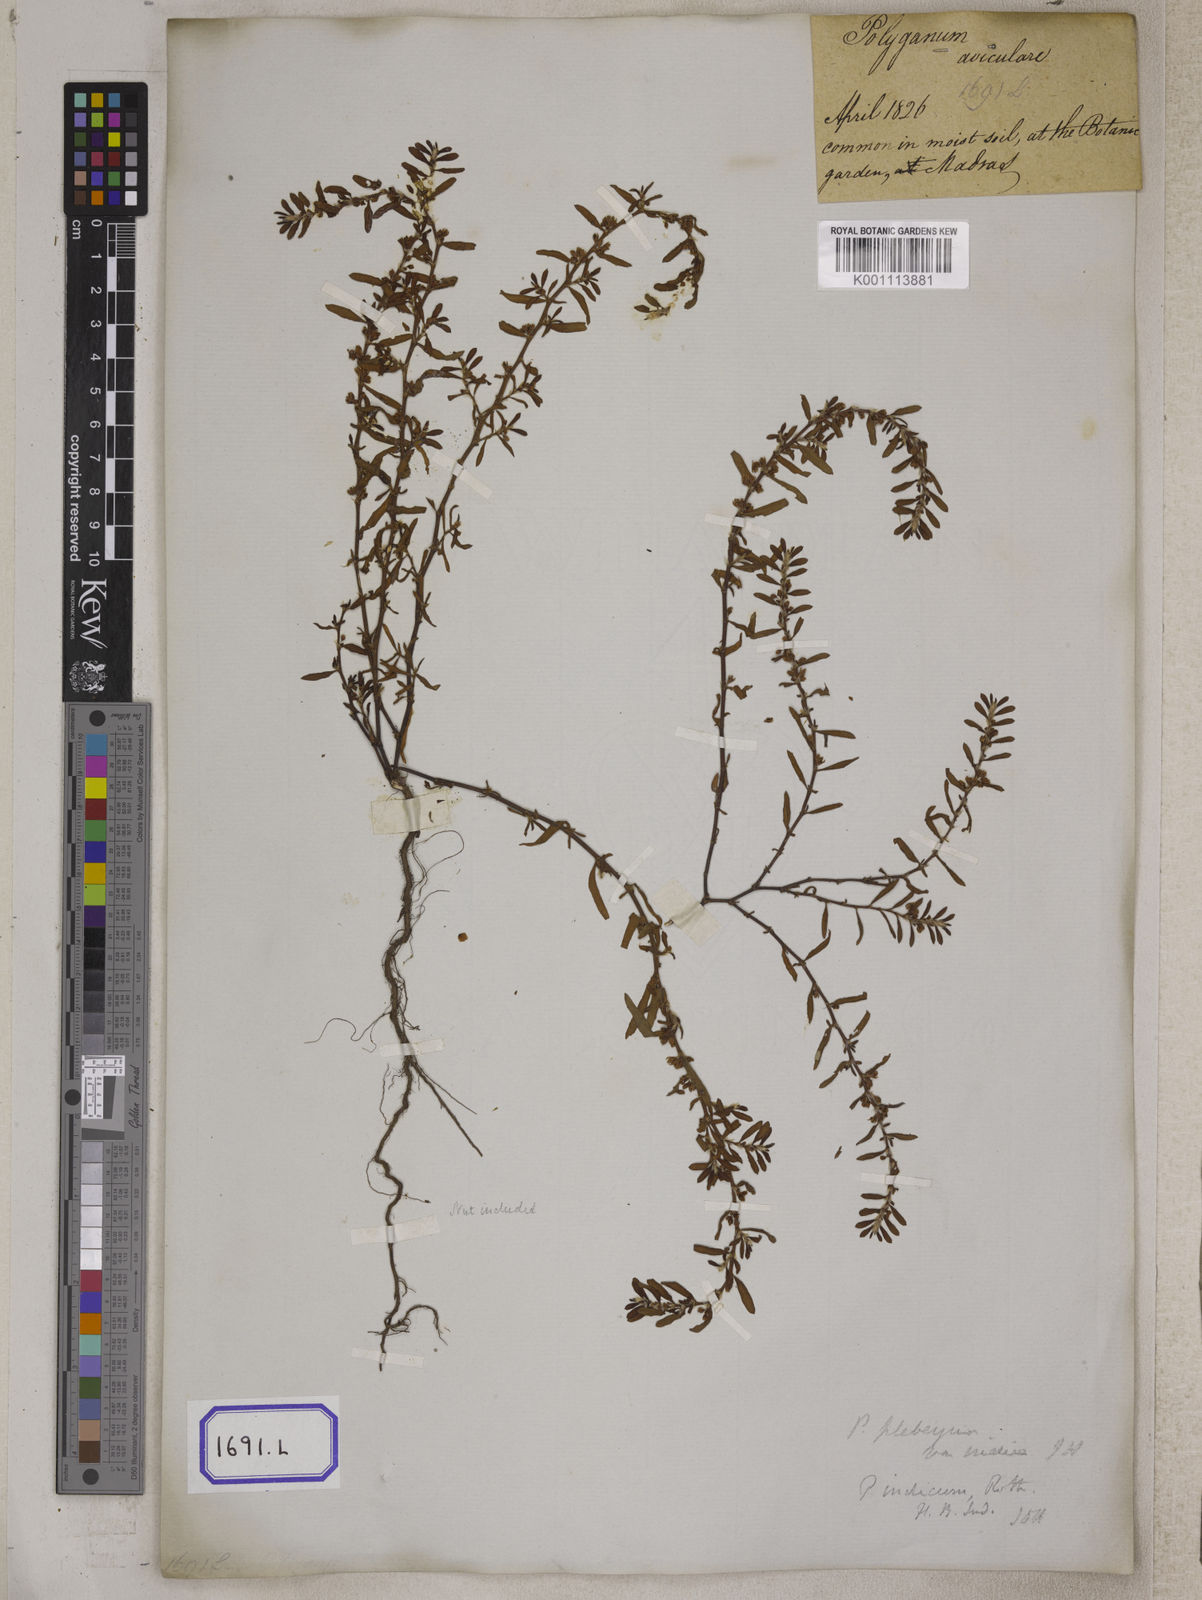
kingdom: Plantae
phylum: Tracheophyta
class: Magnoliopsida
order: Caryophyllales
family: Polygonaceae
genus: Polygonum
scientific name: Polygonum plebeium
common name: Common knotweed
